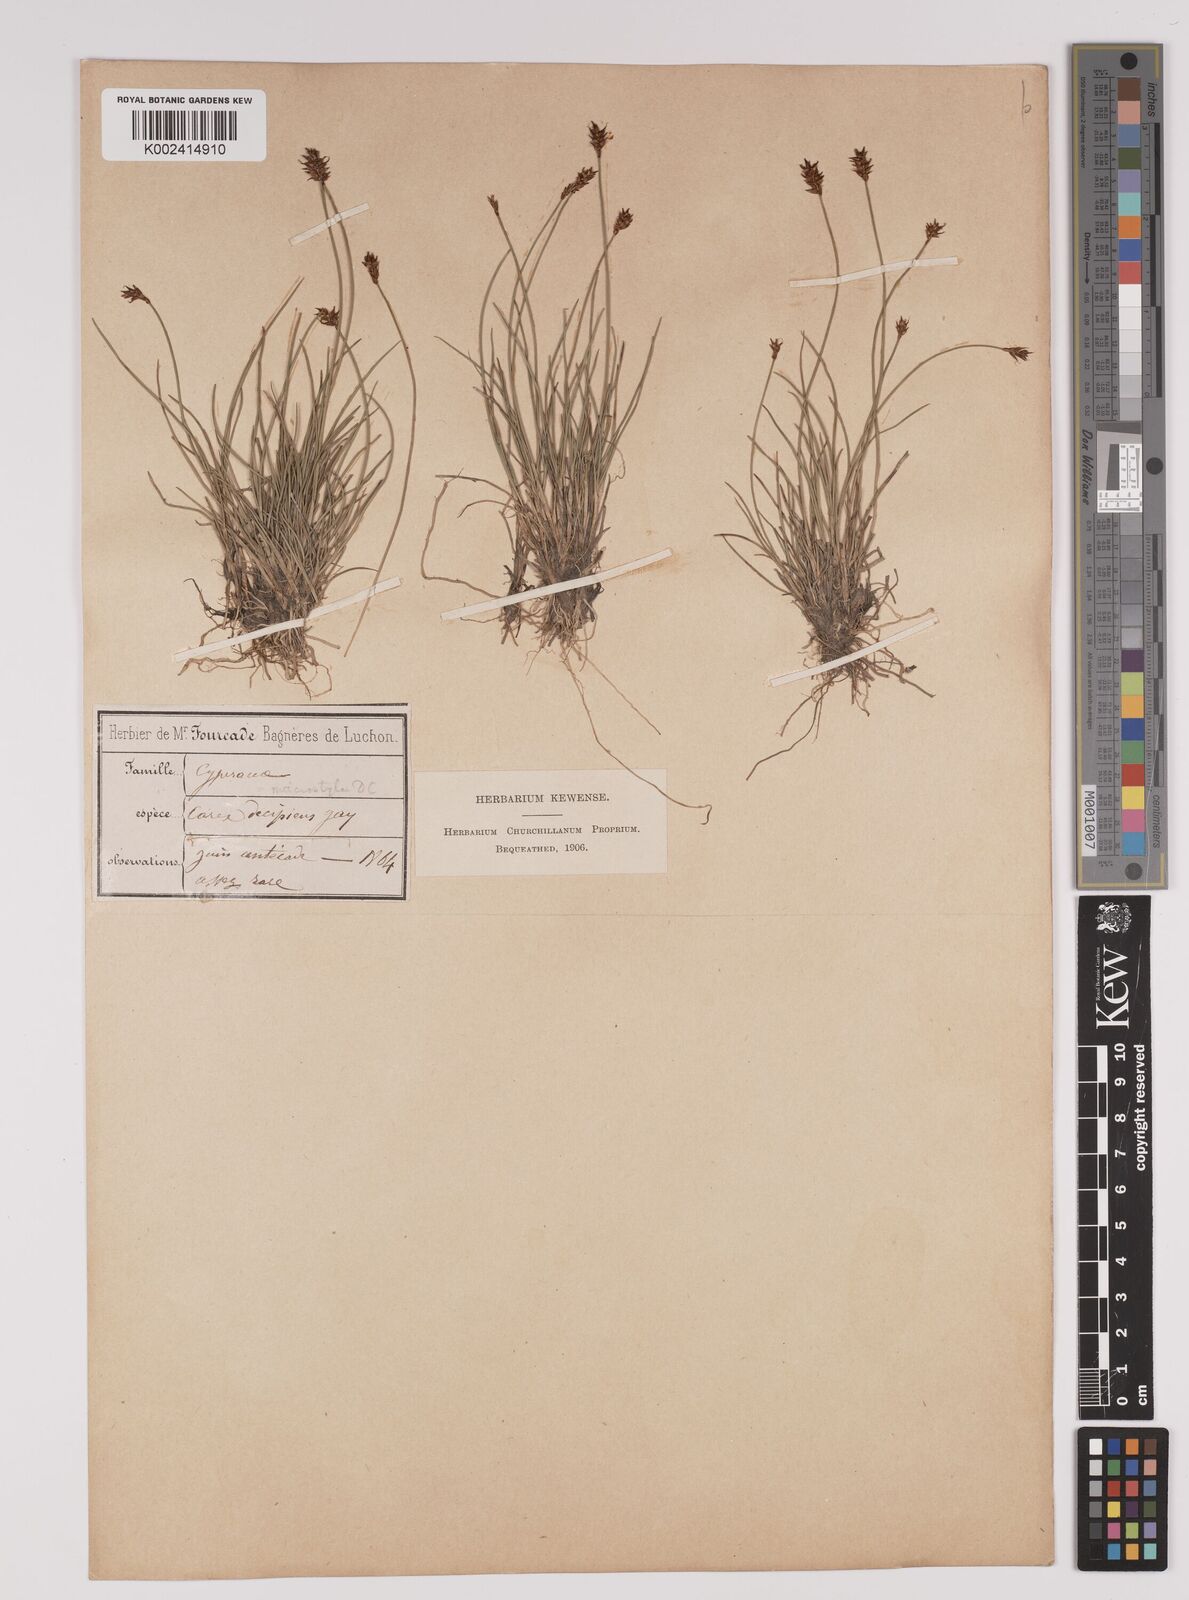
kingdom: Plantae
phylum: Tracheophyta
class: Liliopsida
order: Poales
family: Cyperaceae
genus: Carex
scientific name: Carex dioica
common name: Dioecious sedge
